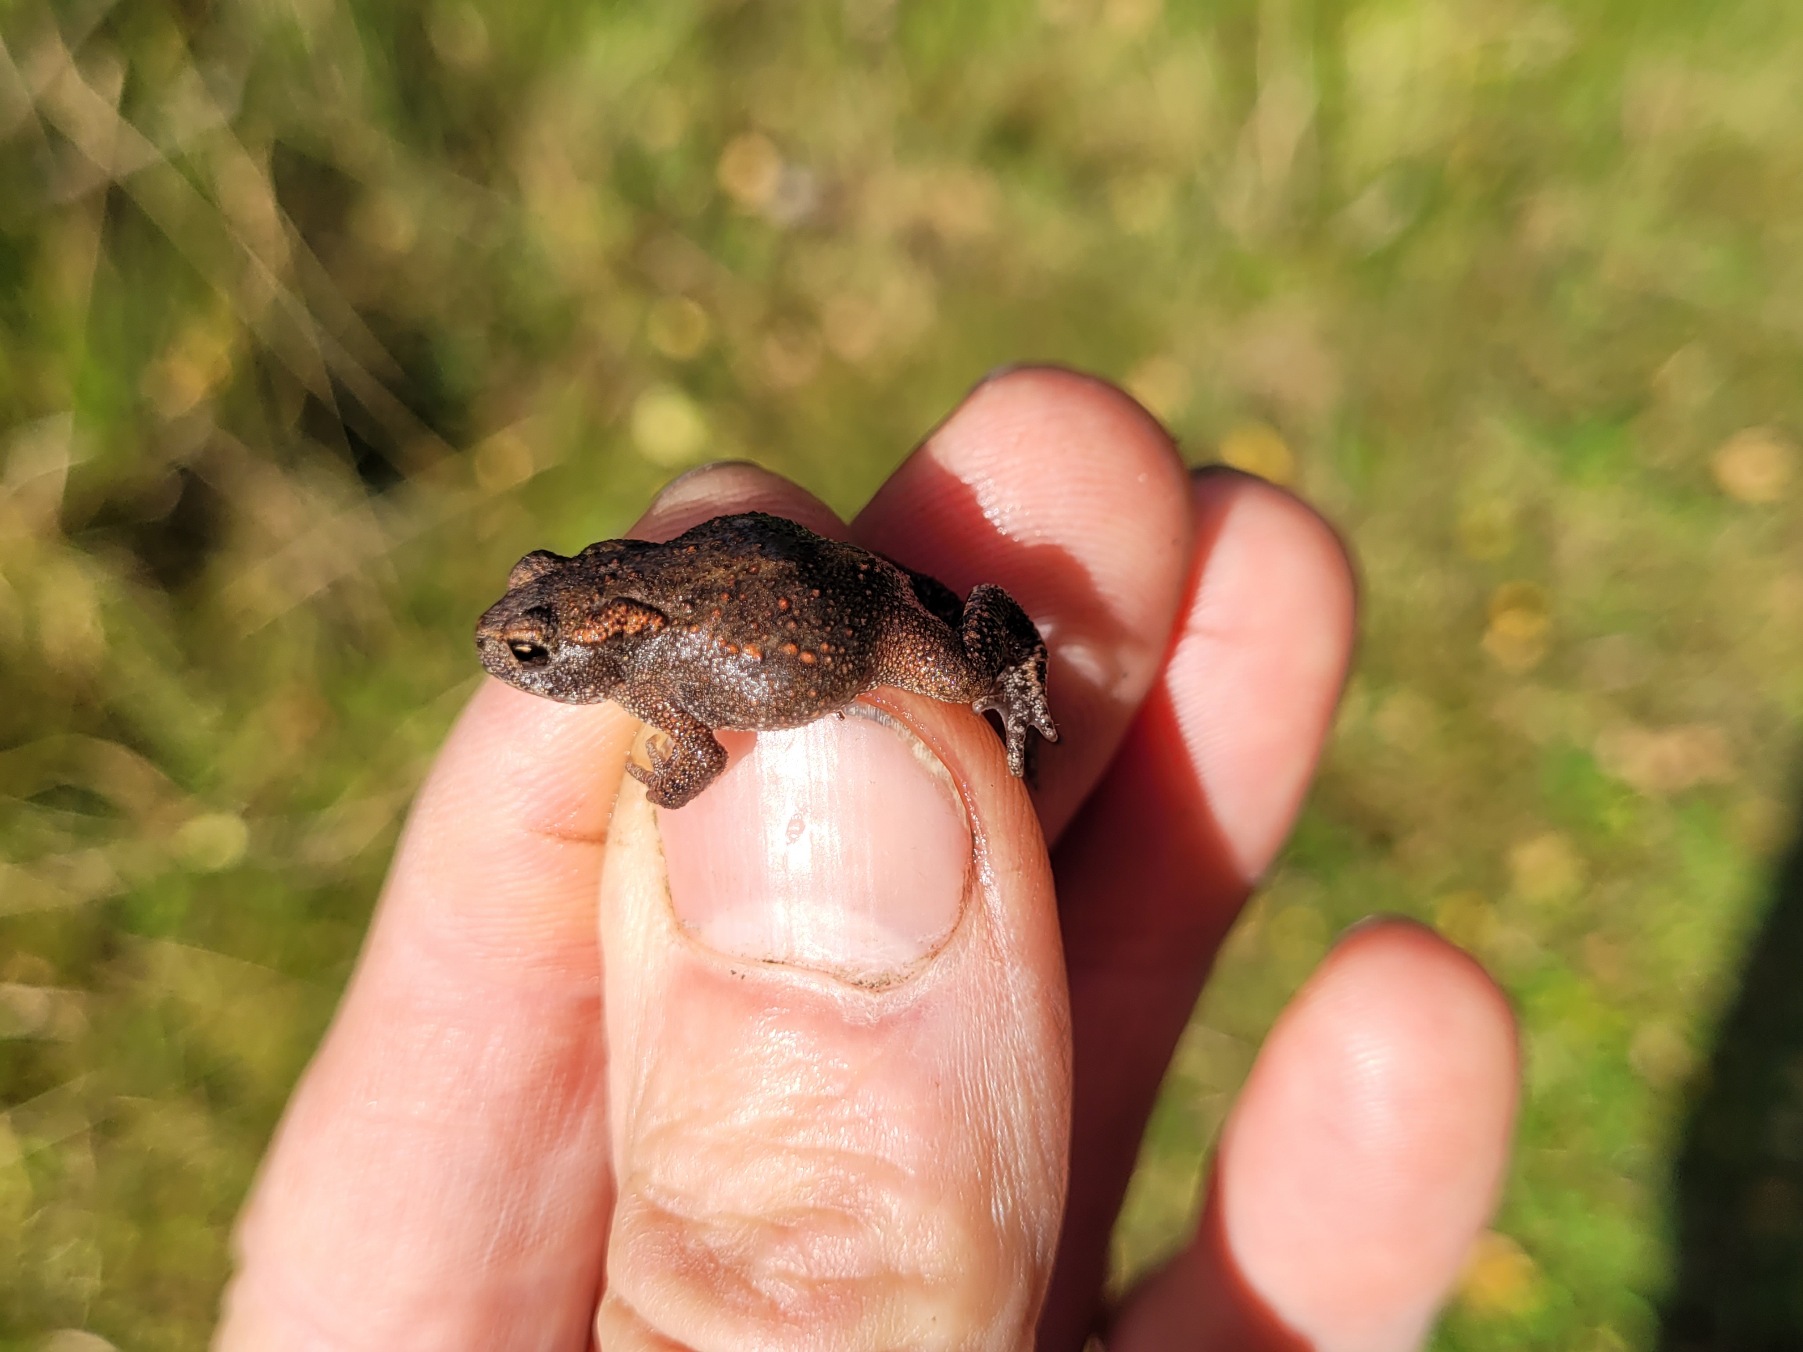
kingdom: Animalia
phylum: Chordata
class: Amphibia
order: Anura
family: Bufonidae
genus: Bufo
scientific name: Bufo bufo
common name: Skrubtudse
